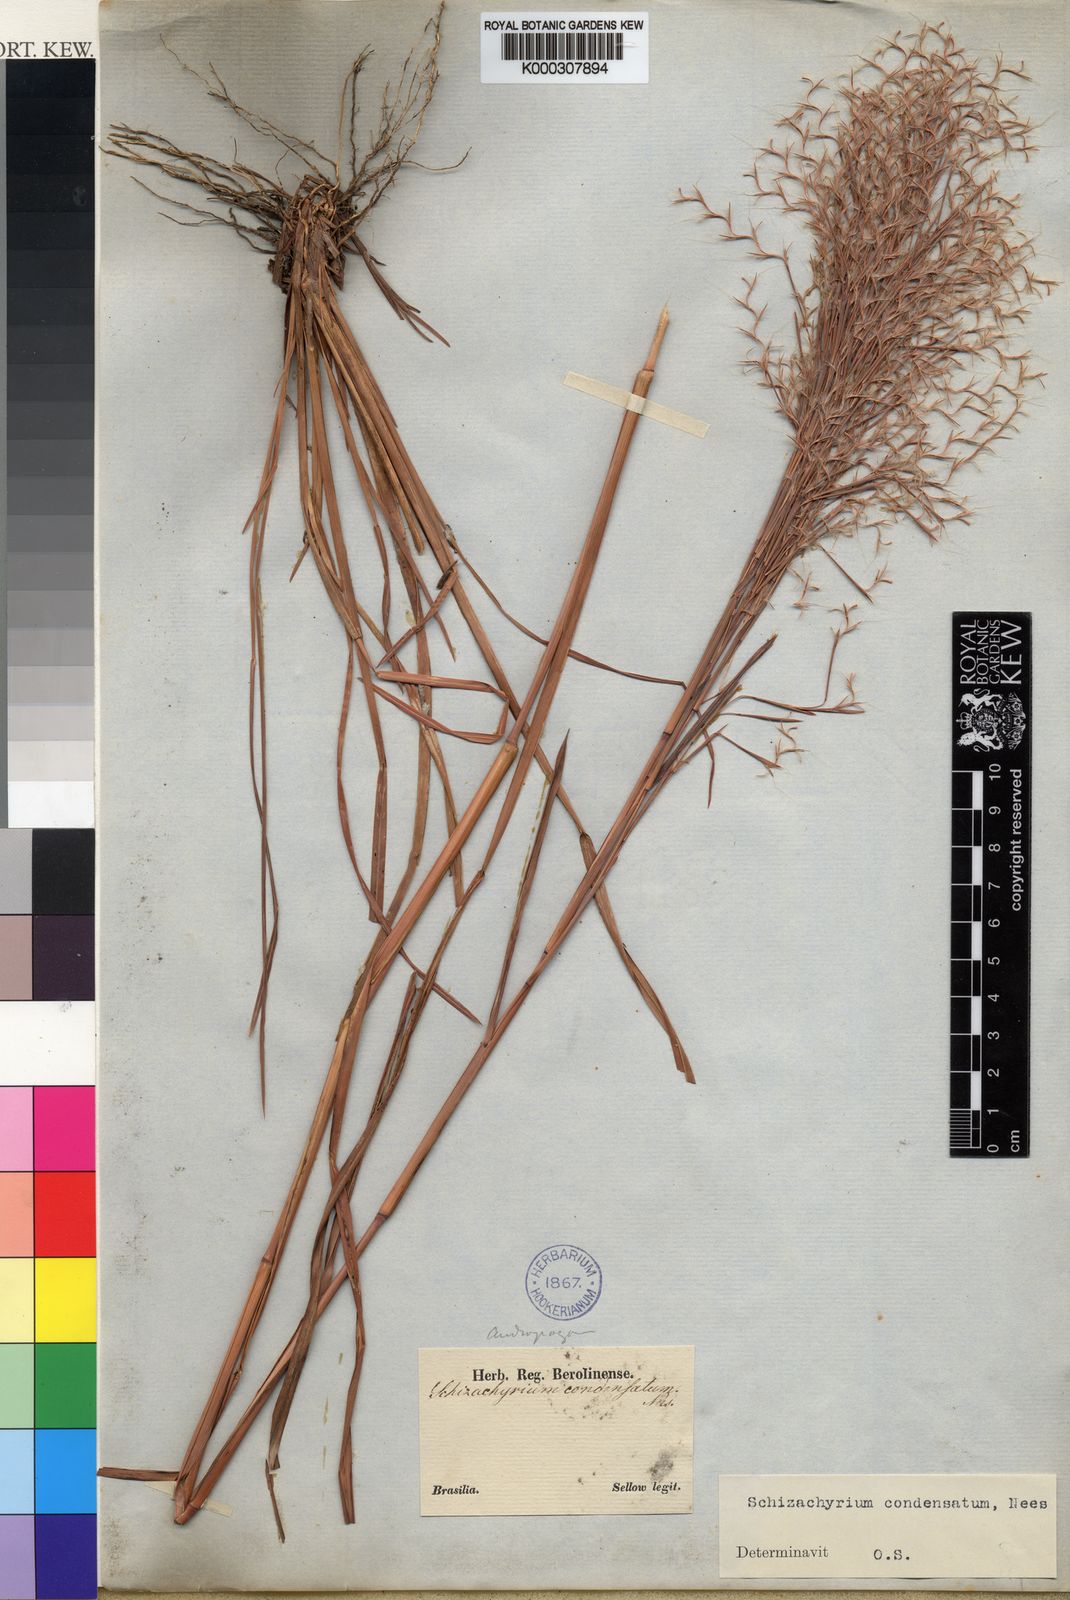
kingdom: Plantae
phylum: Tracheophyta
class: Liliopsida
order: Poales
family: Poaceae
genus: Schizachyrium
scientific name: Schizachyrium condensatum
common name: Bush beardgrass
